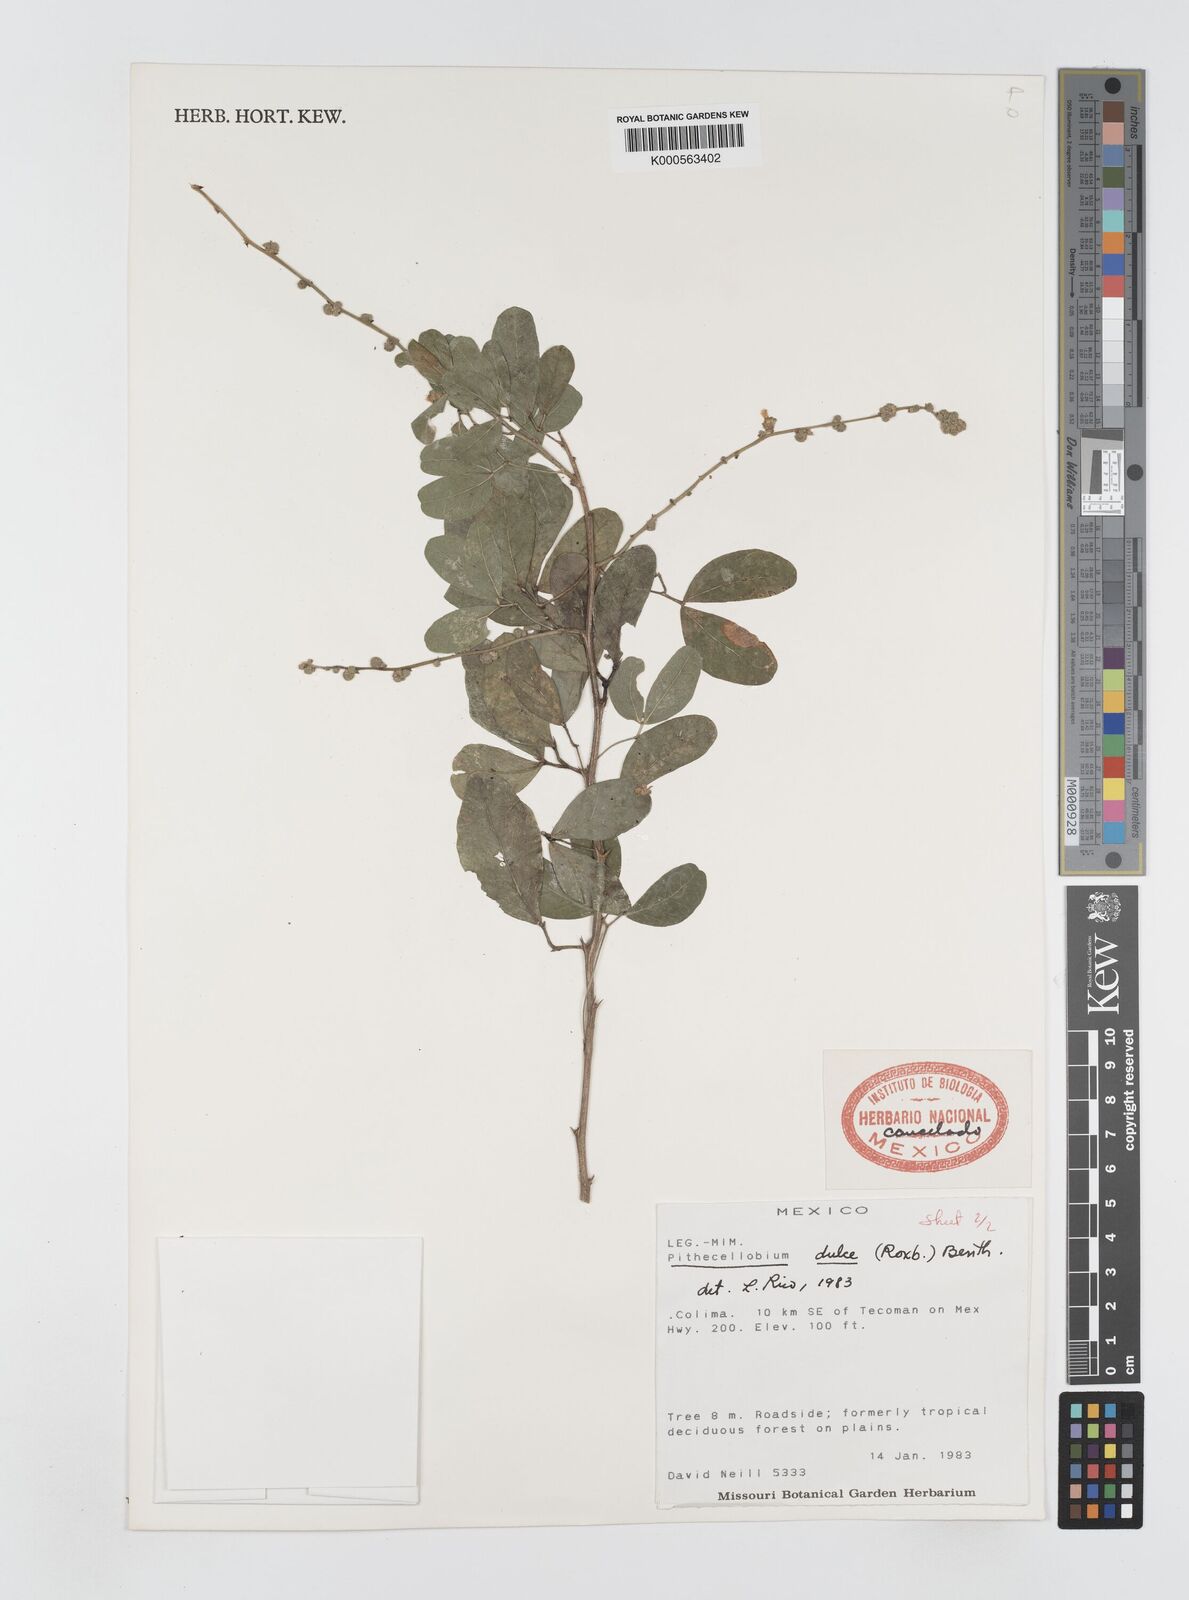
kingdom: Plantae
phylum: Tracheophyta
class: Magnoliopsida
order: Fabales
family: Fabaceae
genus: Pithecellobium
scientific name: Pithecellobium dulce
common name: Monkeypod
